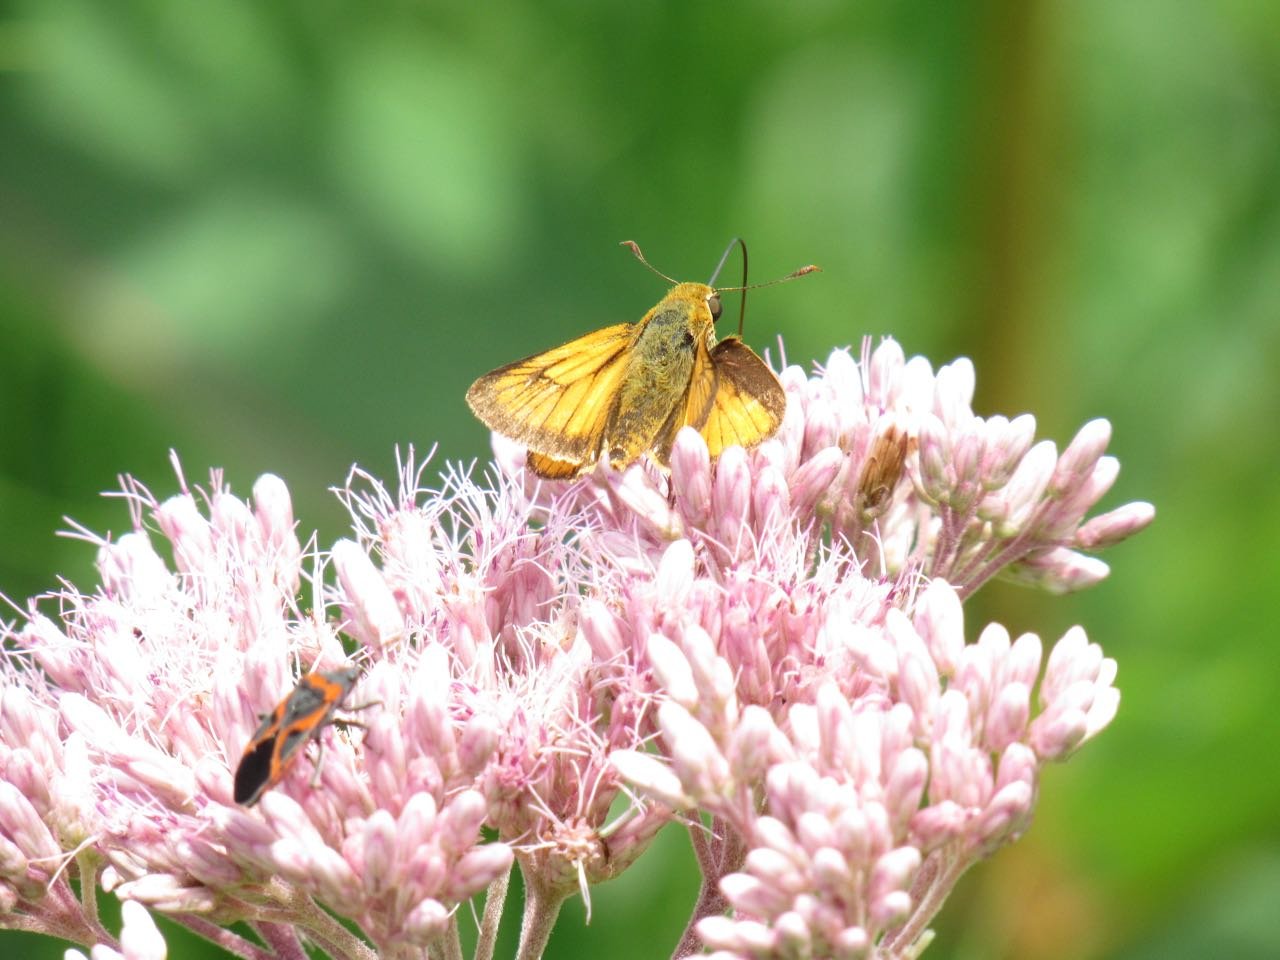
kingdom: Animalia
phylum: Arthropoda
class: Insecta
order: Lepidoptera
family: Hesperiidae
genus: Atrytone
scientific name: Atrytone delaware
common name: Delaware Skipper
